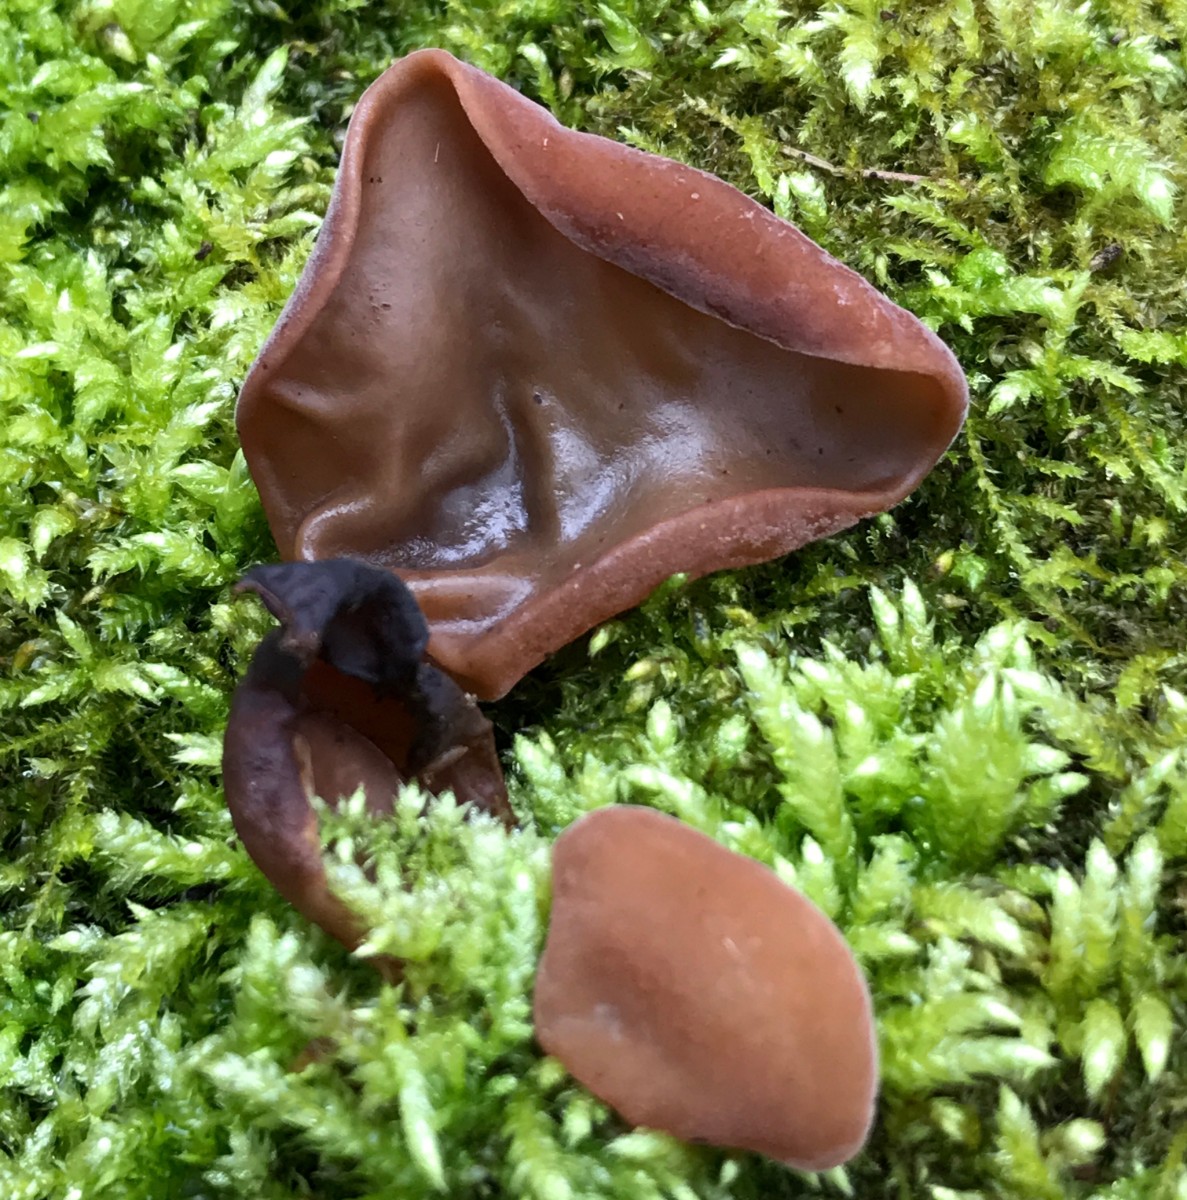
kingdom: Fungi
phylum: Basidiomycota
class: Agaricomycetes
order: Auriculariales
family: Auriculariaceae
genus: Auricularia
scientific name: Auricularia auricula-judae
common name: almindelig judasøre
